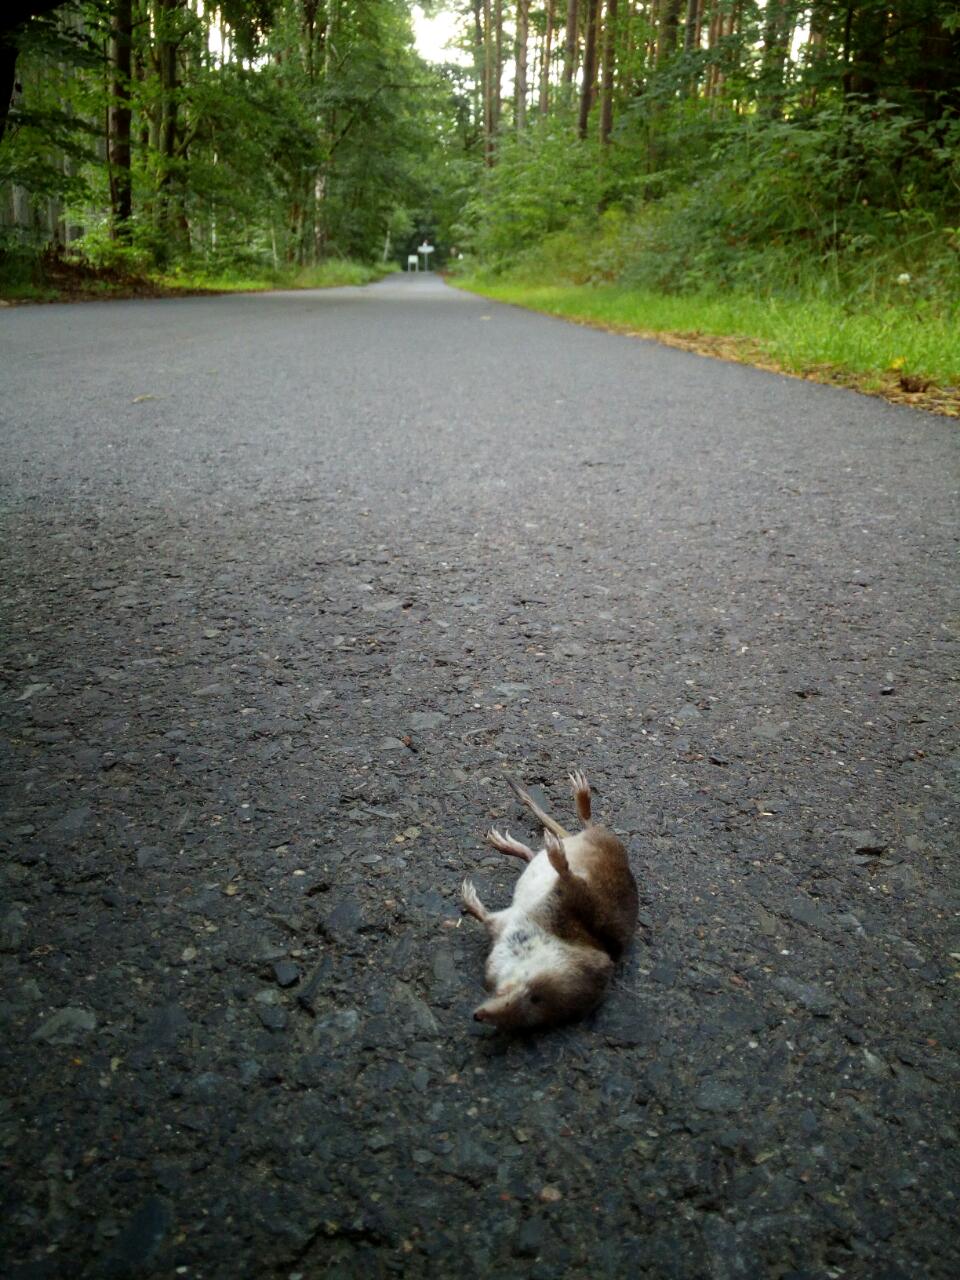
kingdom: Animalia
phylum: Chordata
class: Mammalia
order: Soricomorpha
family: Soricidae
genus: Sorex
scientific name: Sorex araneus
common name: Common shrew
